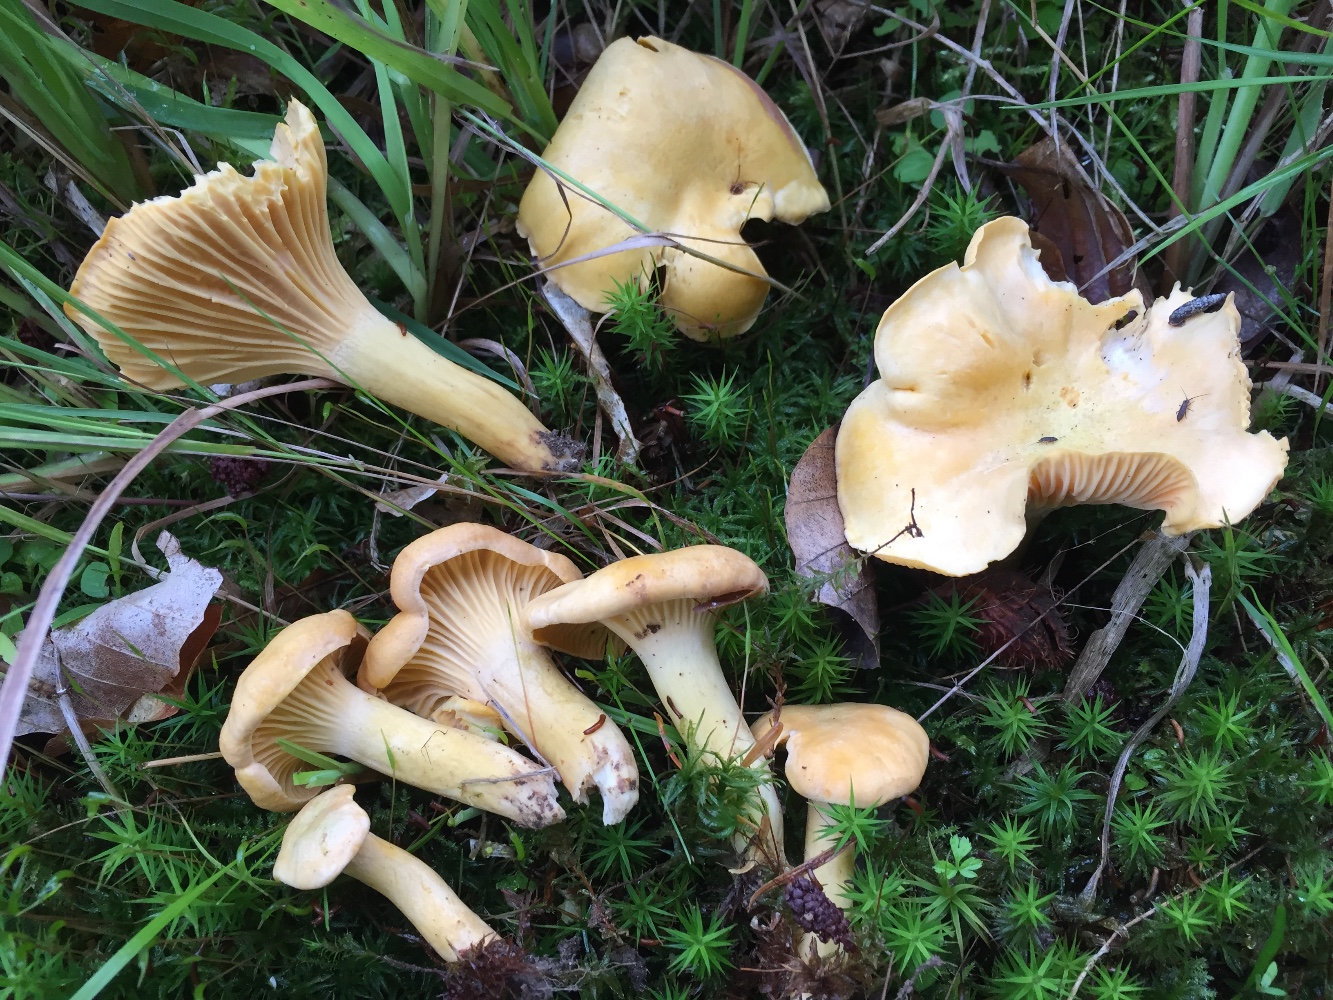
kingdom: Fungi
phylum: Basidiomycota
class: Agaricomycetes
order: Cantharellales
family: Hydnaceae
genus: Cantharellus
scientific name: Cantharellus cibarius
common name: almindelig kantarel
